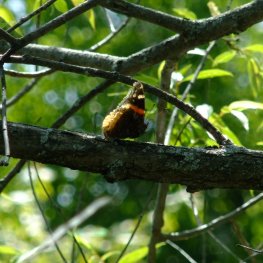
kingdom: Animalia
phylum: Arthropoda
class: Insecta
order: Lepidoptera
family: Nymphalidae
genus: Vanessa
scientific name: Vanessa atalanta
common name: Red Admiral
